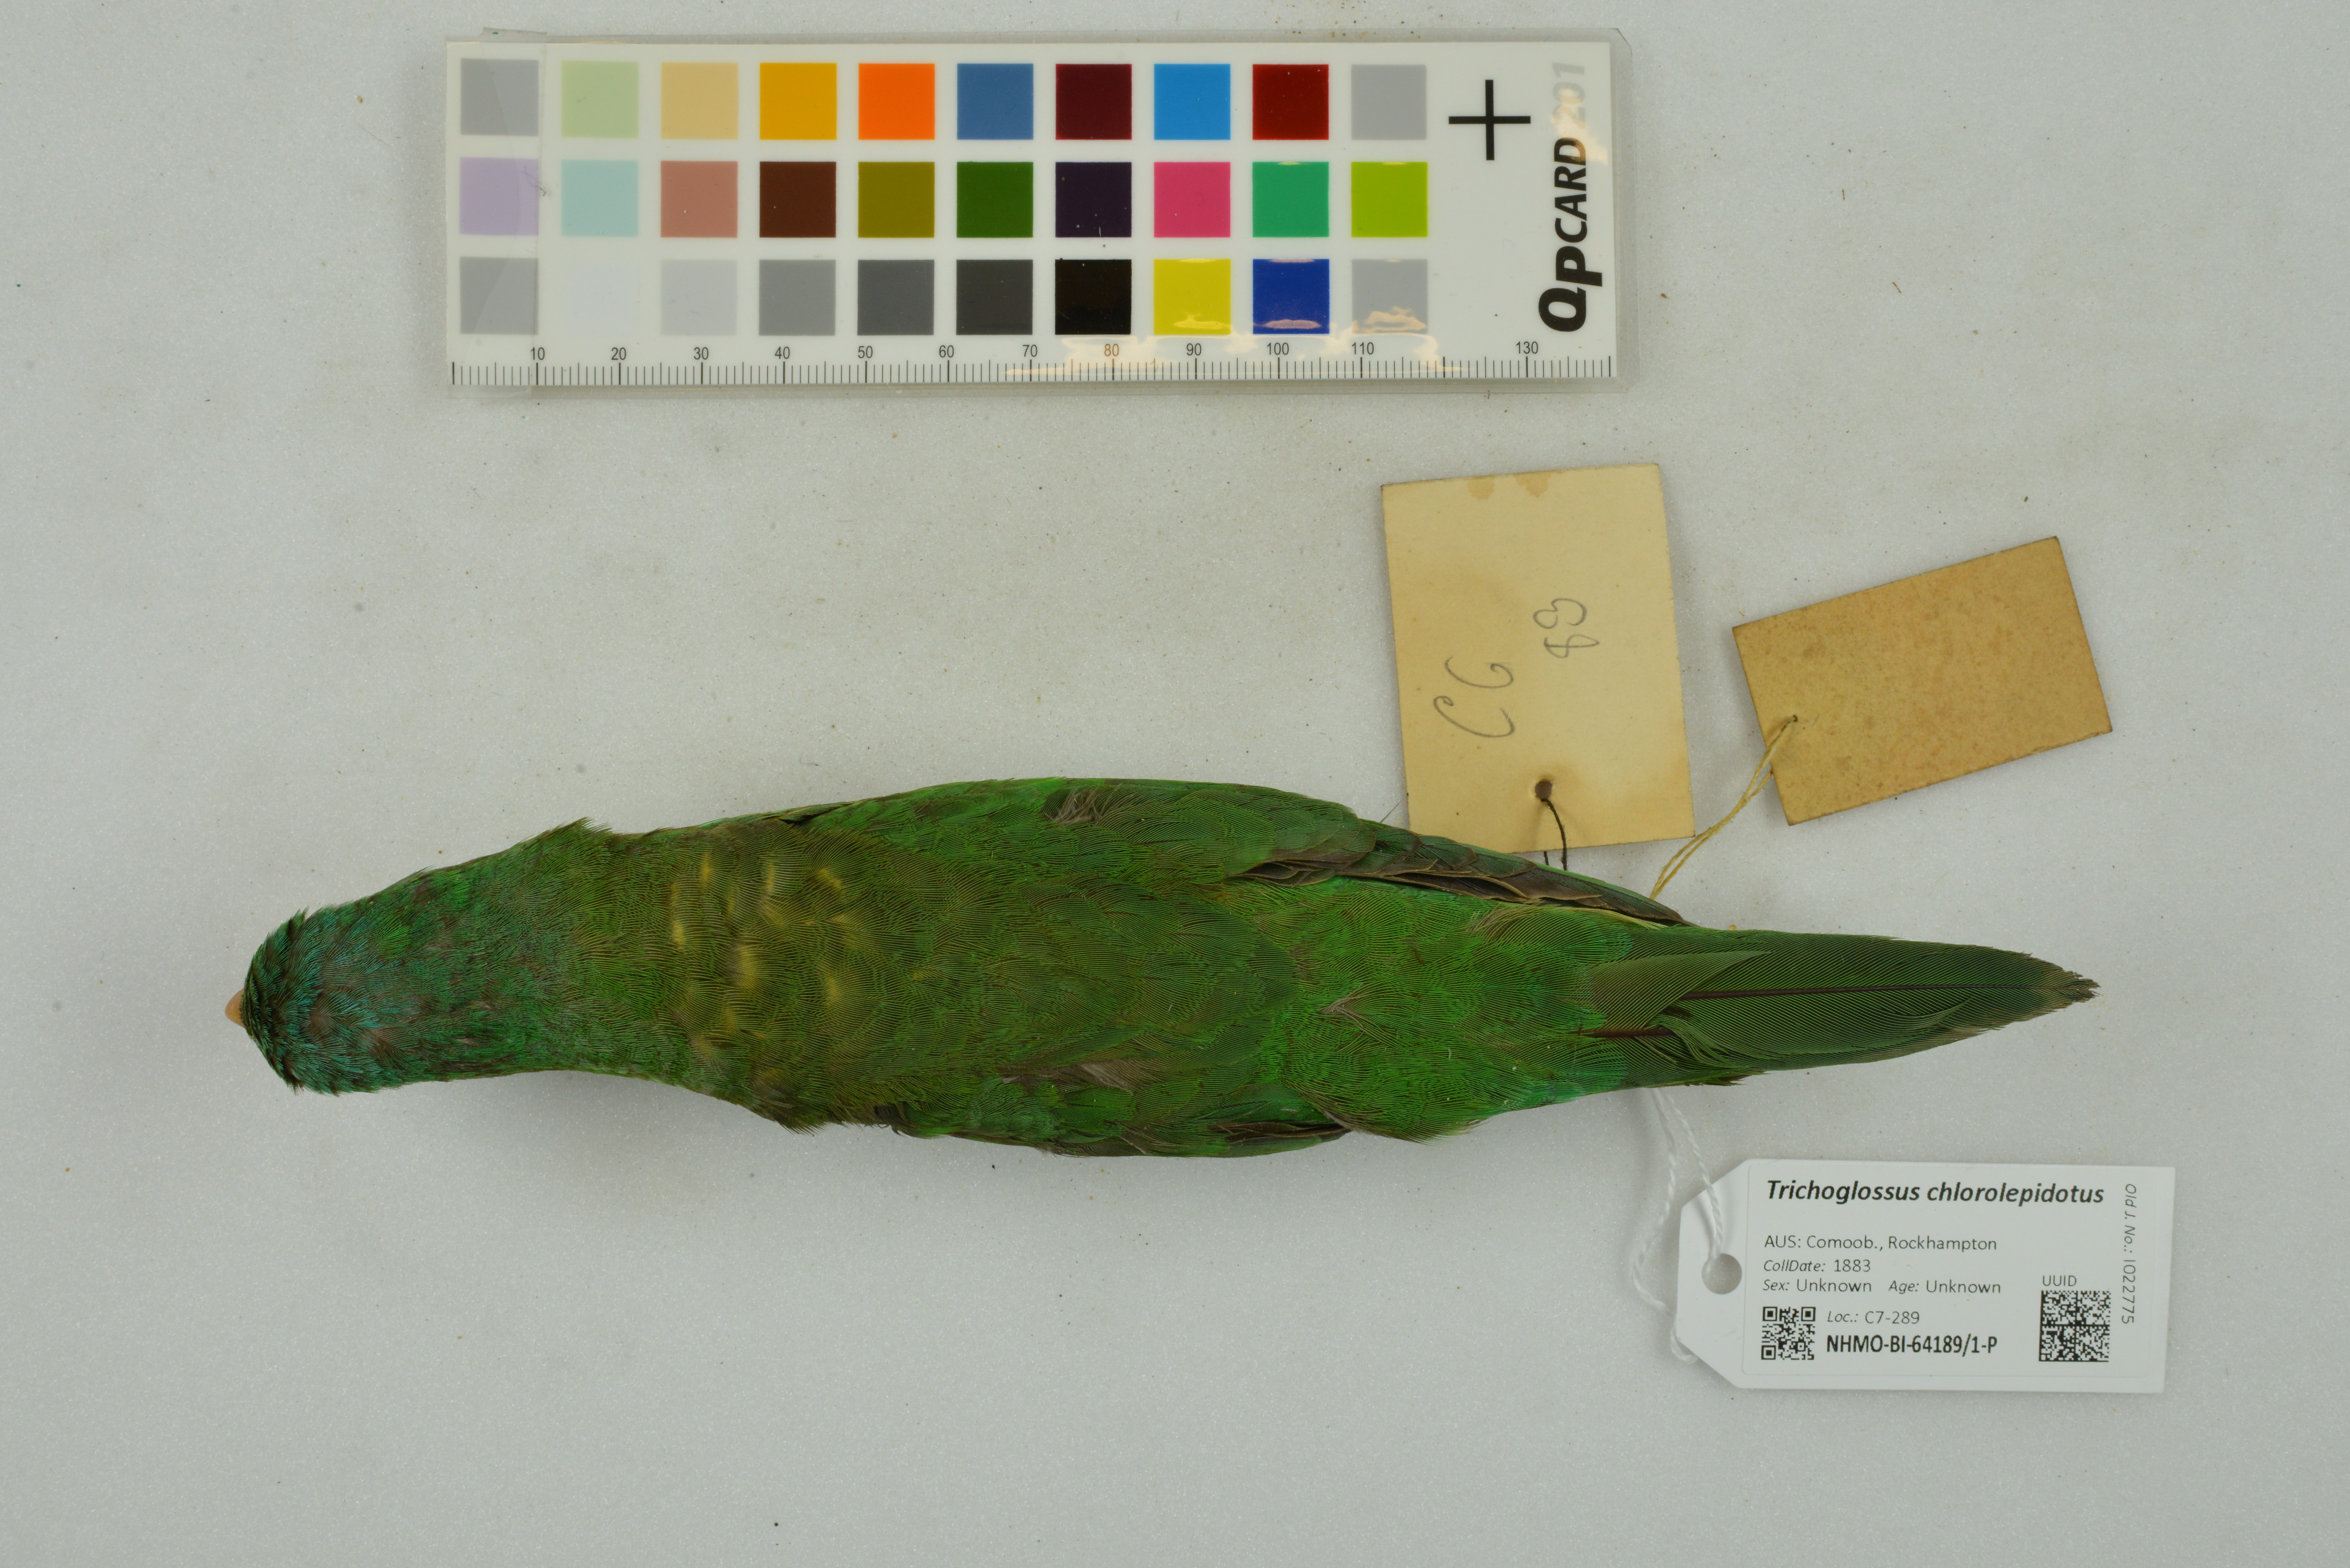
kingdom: Animalia
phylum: Chordata
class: Aves
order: Psittaciformes
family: Psittacidae
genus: Trichoglossus
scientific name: Trichoglossus chlorolepidotus
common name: Scaly-breasted lorikeet
